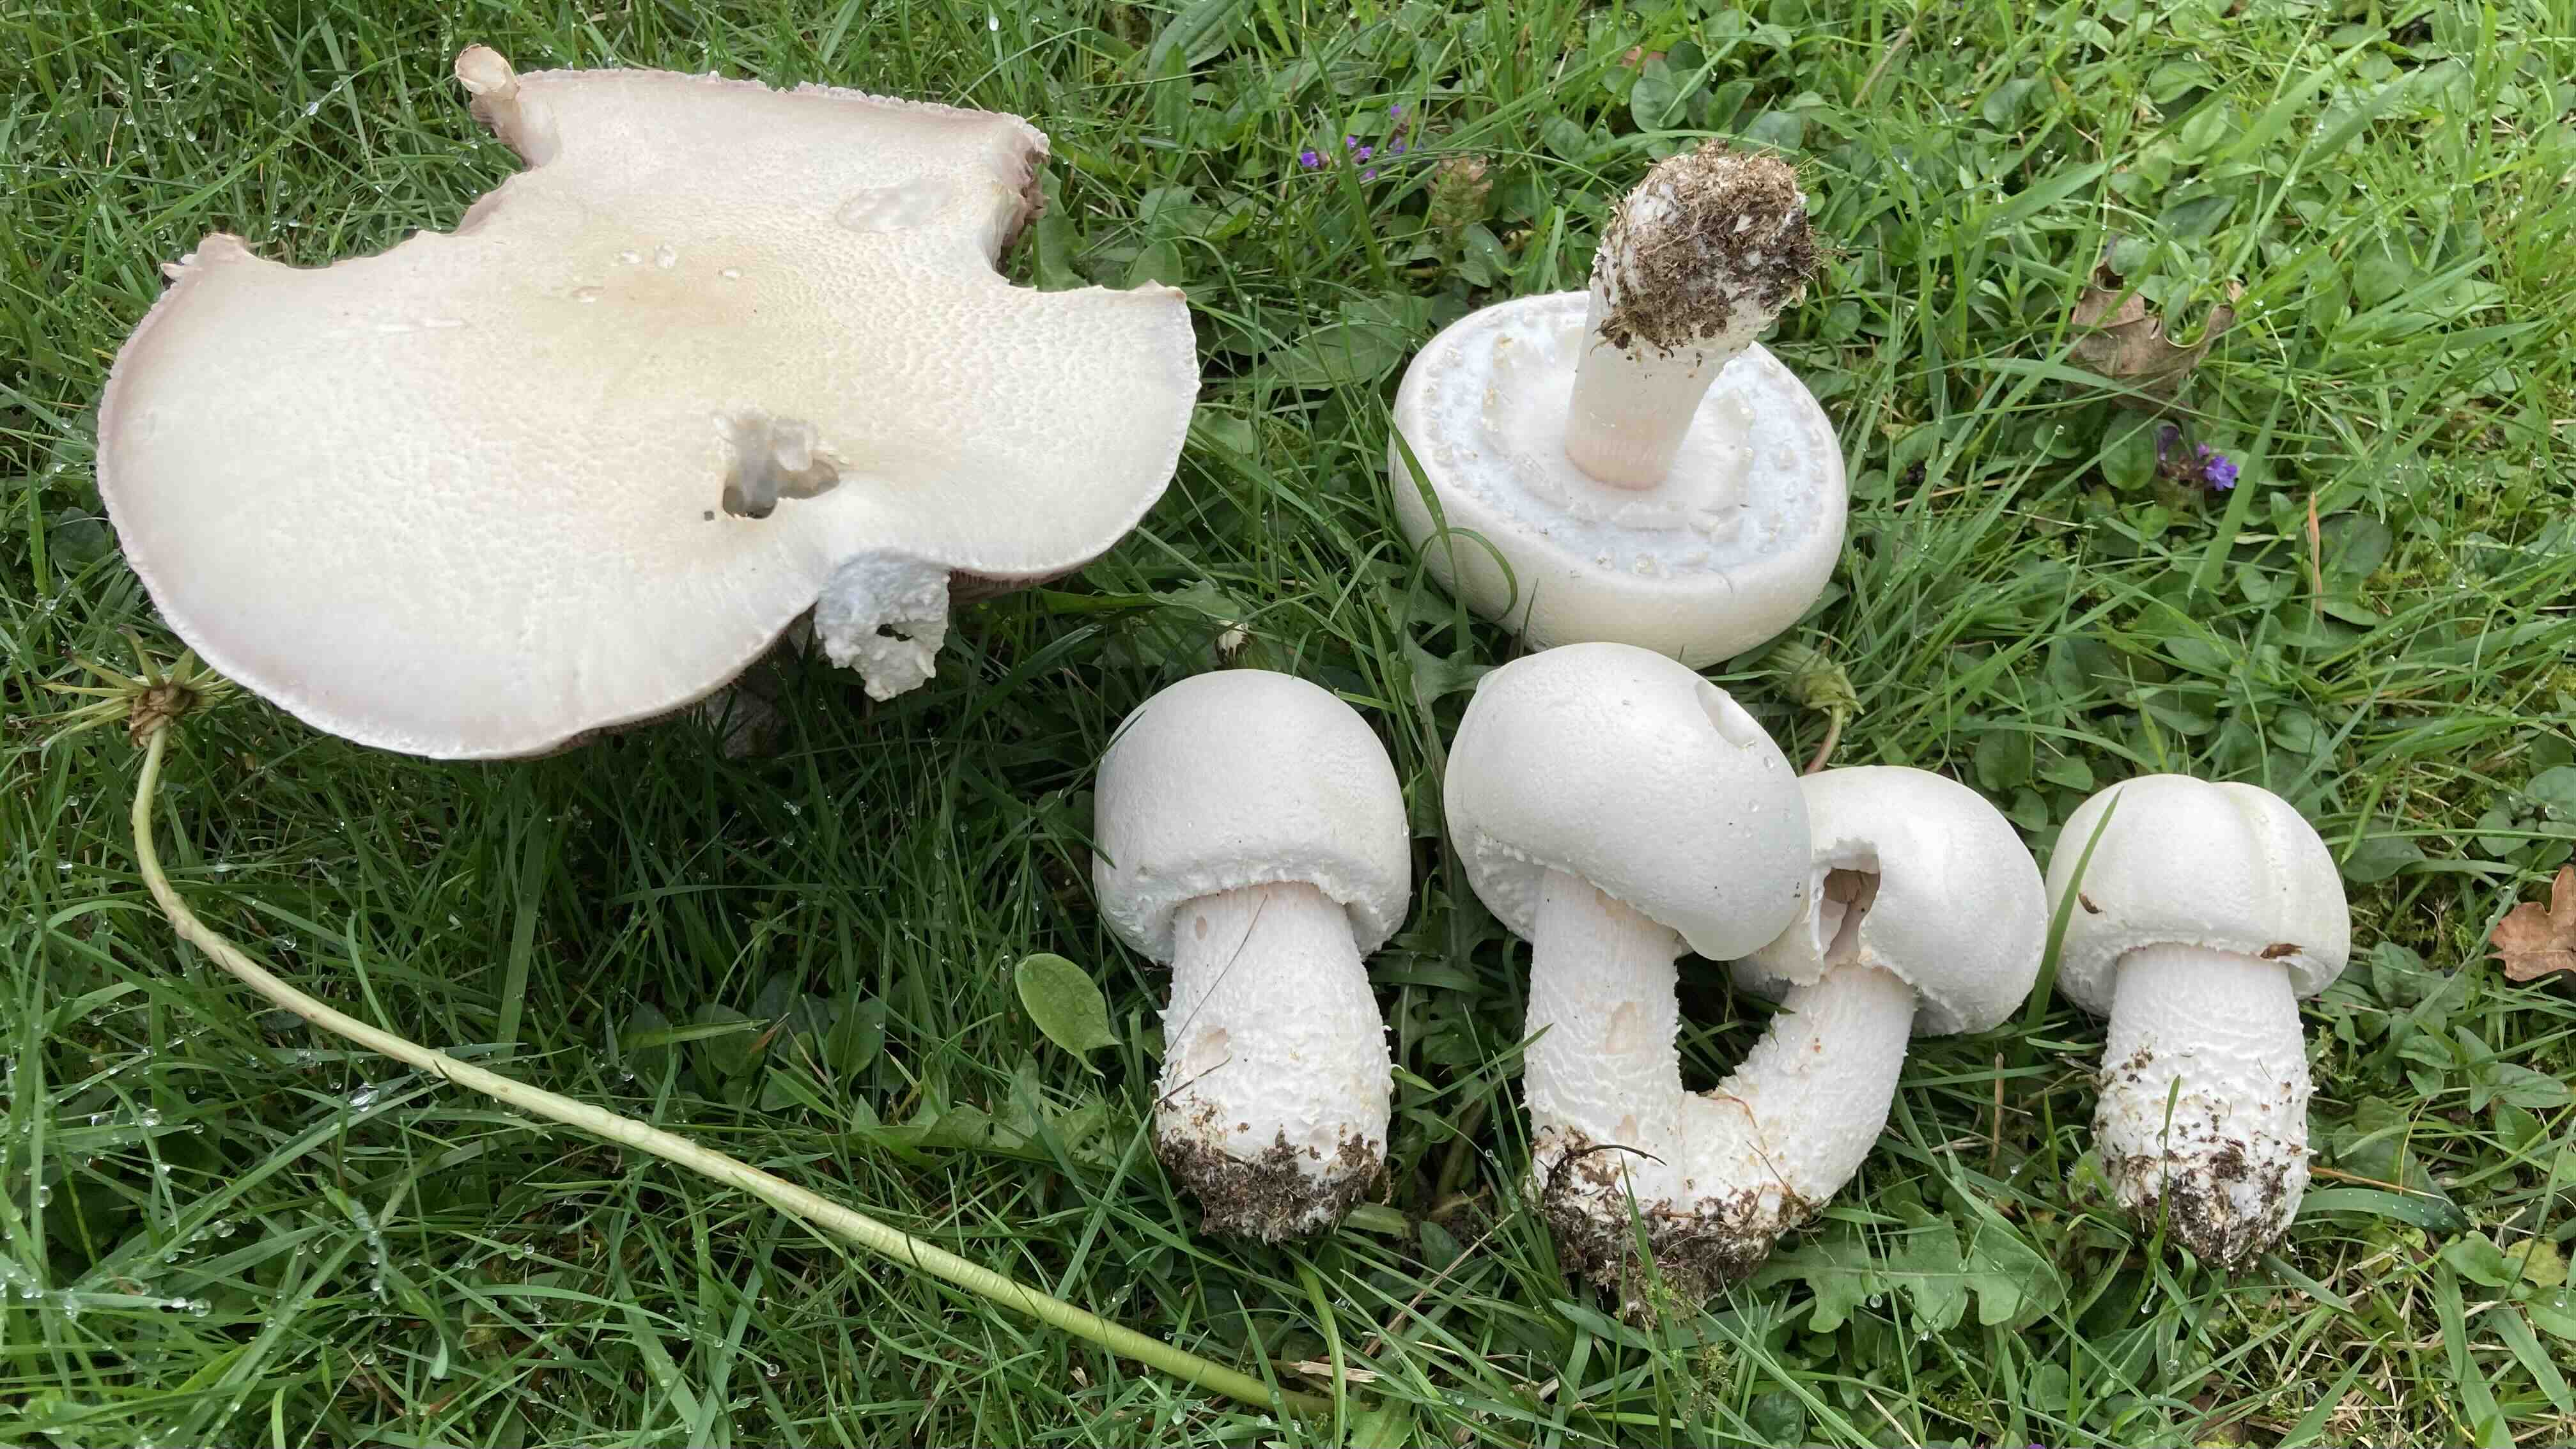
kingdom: Fungi
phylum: Basidiomycota
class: Agaricomycetes
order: Agaricales
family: Agaricaceae
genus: Agaricus
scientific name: Agaricus crocodilinus
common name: landsby-champignon
